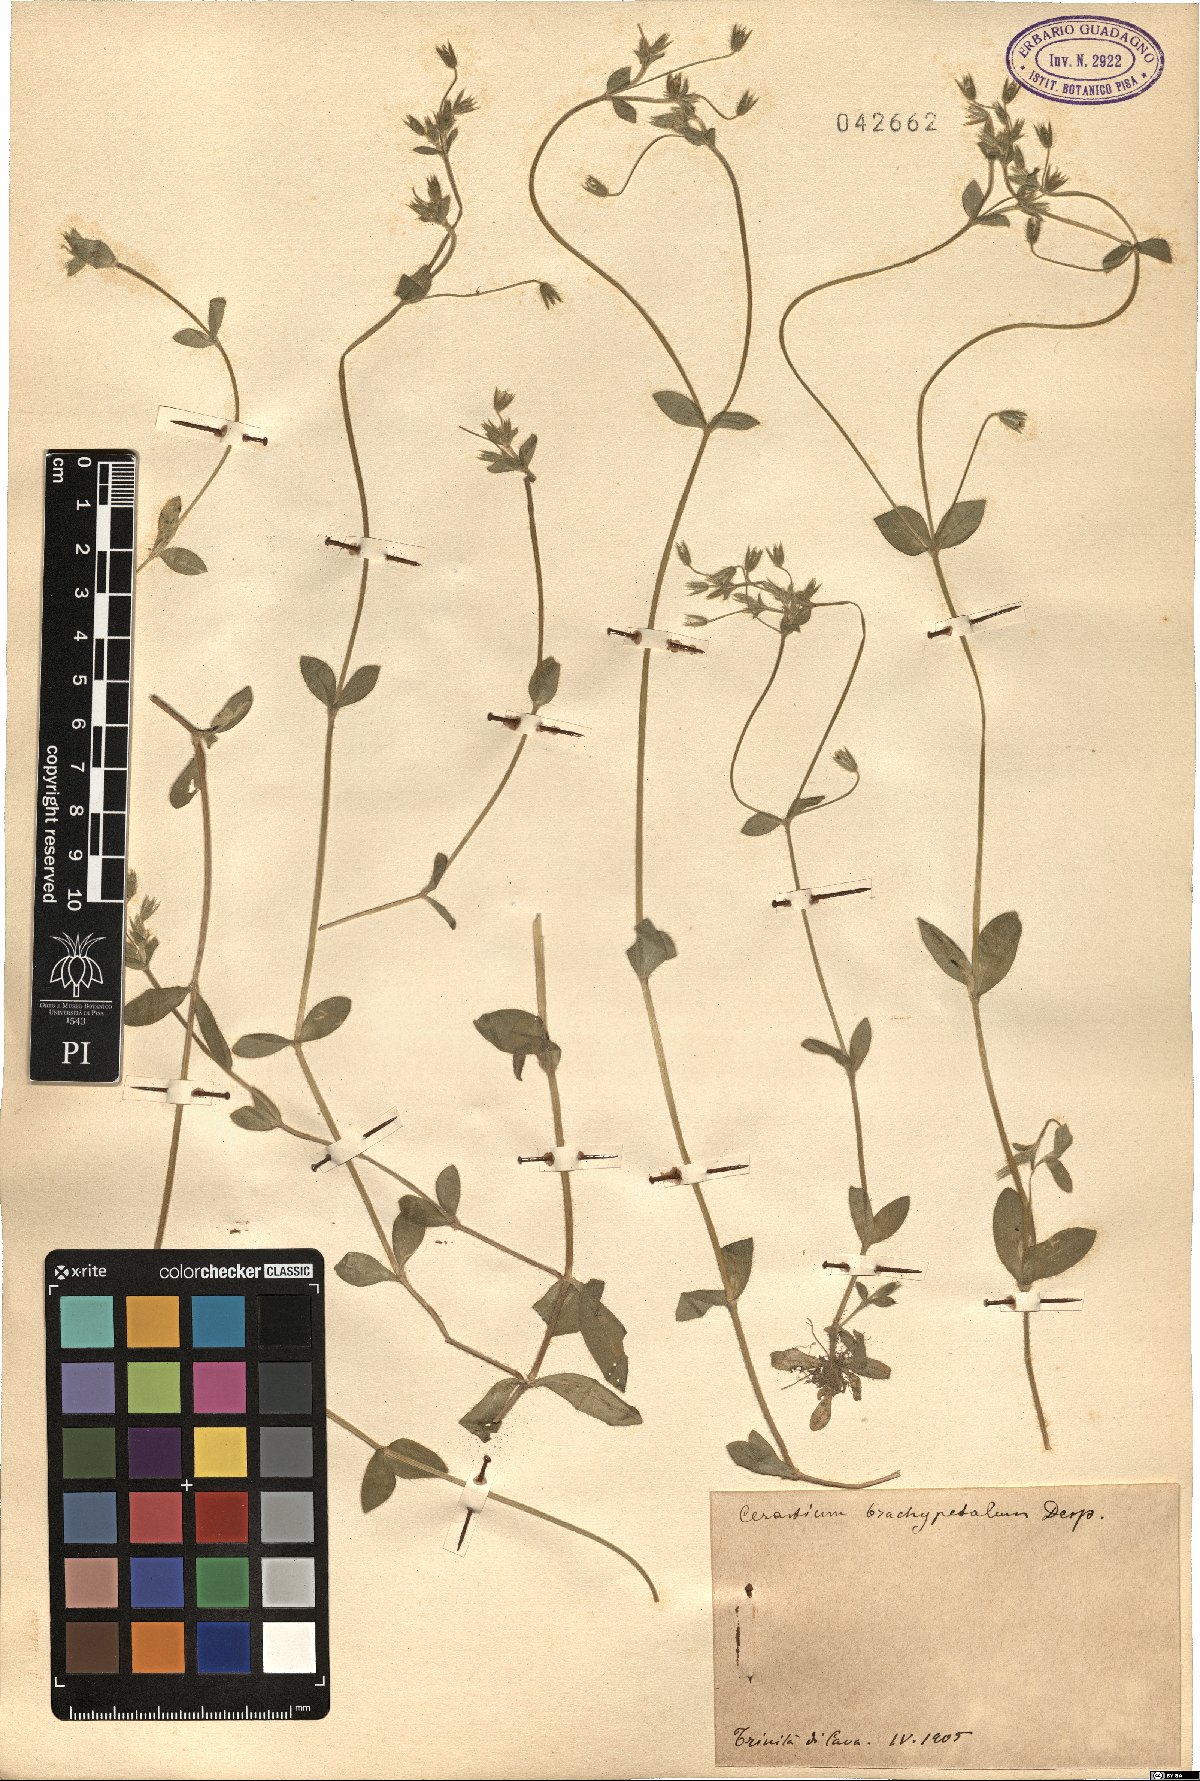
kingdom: Plantae
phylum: Tracheophyta
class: Magnoliopsida
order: Caryophyllales
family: Caryophyllaceae
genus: Cerastium
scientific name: Cerastium brachypetalum
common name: Grey mouse-ear
